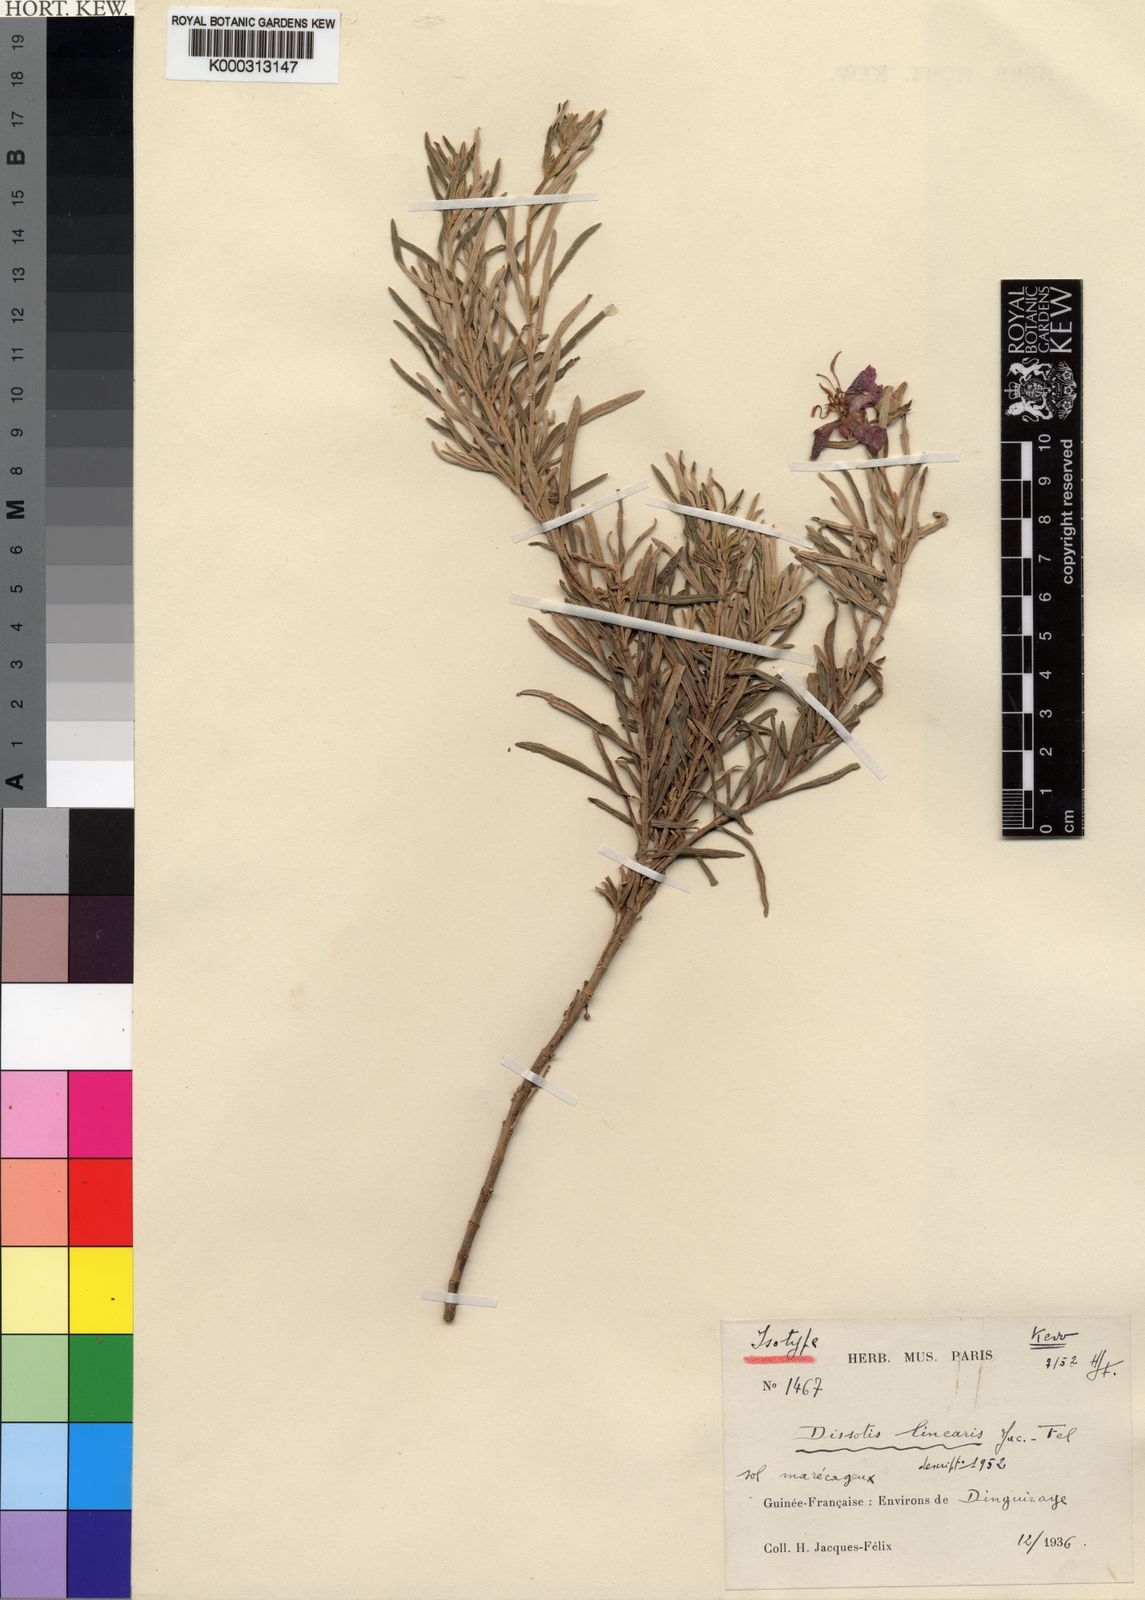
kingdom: Plantae
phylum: Tracheophyta
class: Magnoliopsida
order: Myrtales
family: Melastomataceae
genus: Argyrella
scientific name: Argyrella
